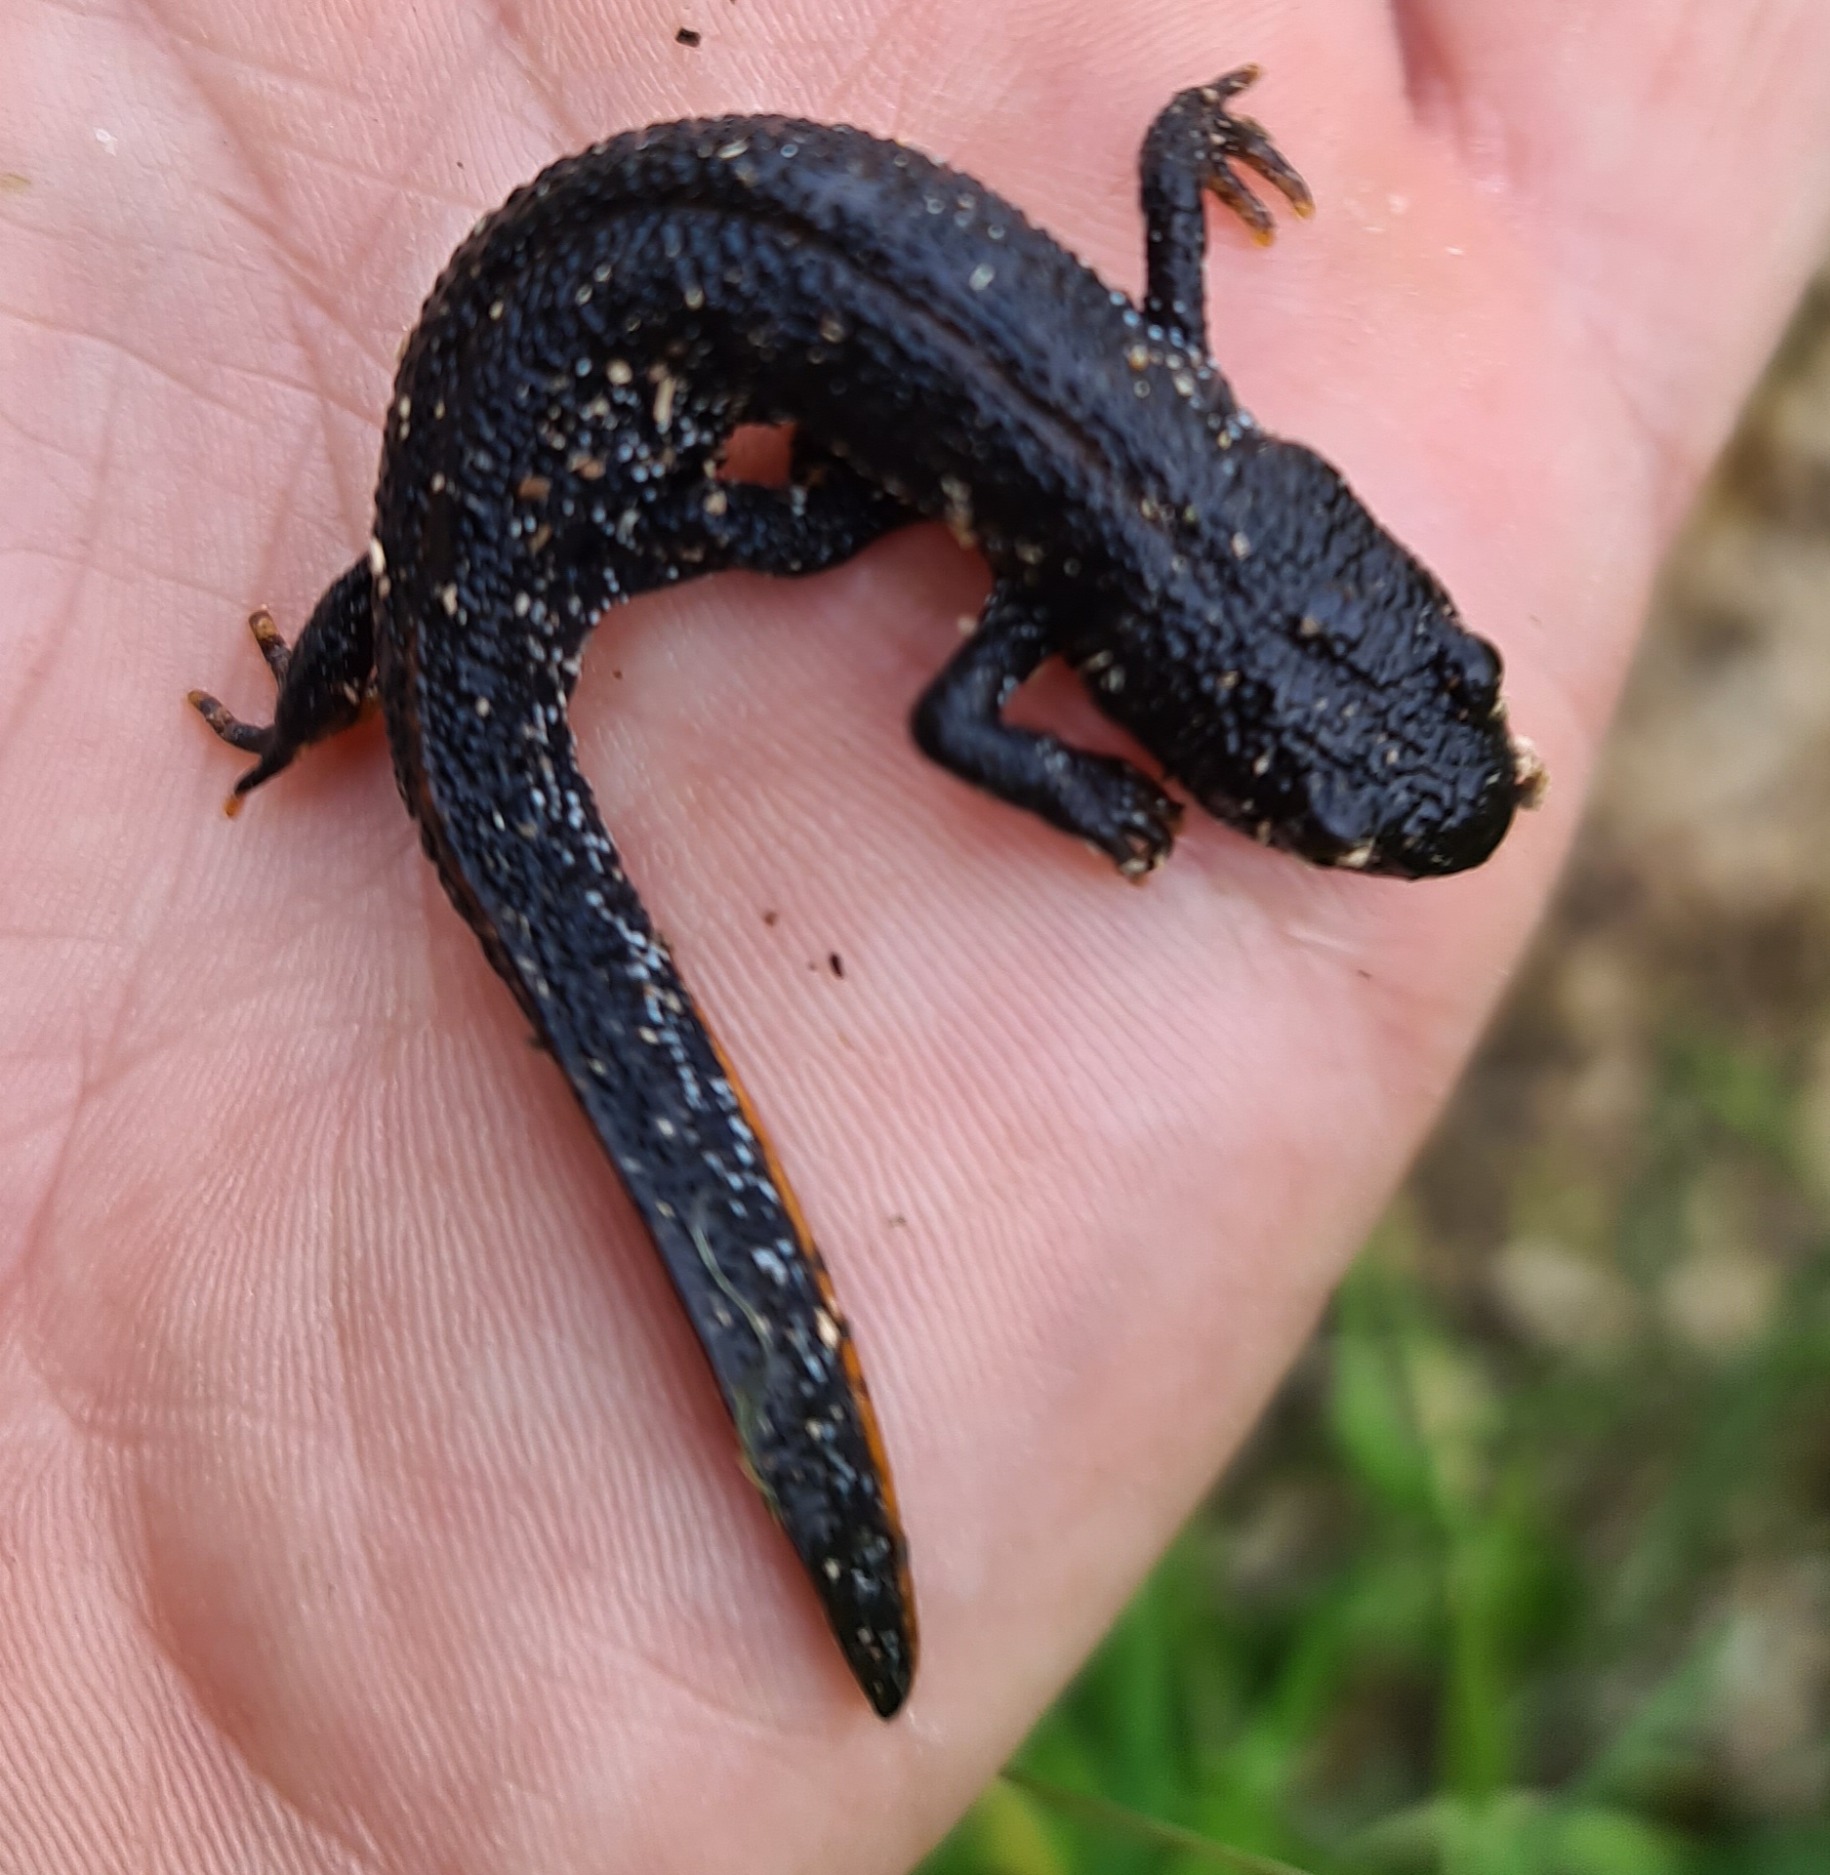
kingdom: Animalia
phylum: Chordata
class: Amphibia
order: Caudata
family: Salamandridae
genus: Triturus
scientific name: Triturus cristatus
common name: Stor vandsalamander
